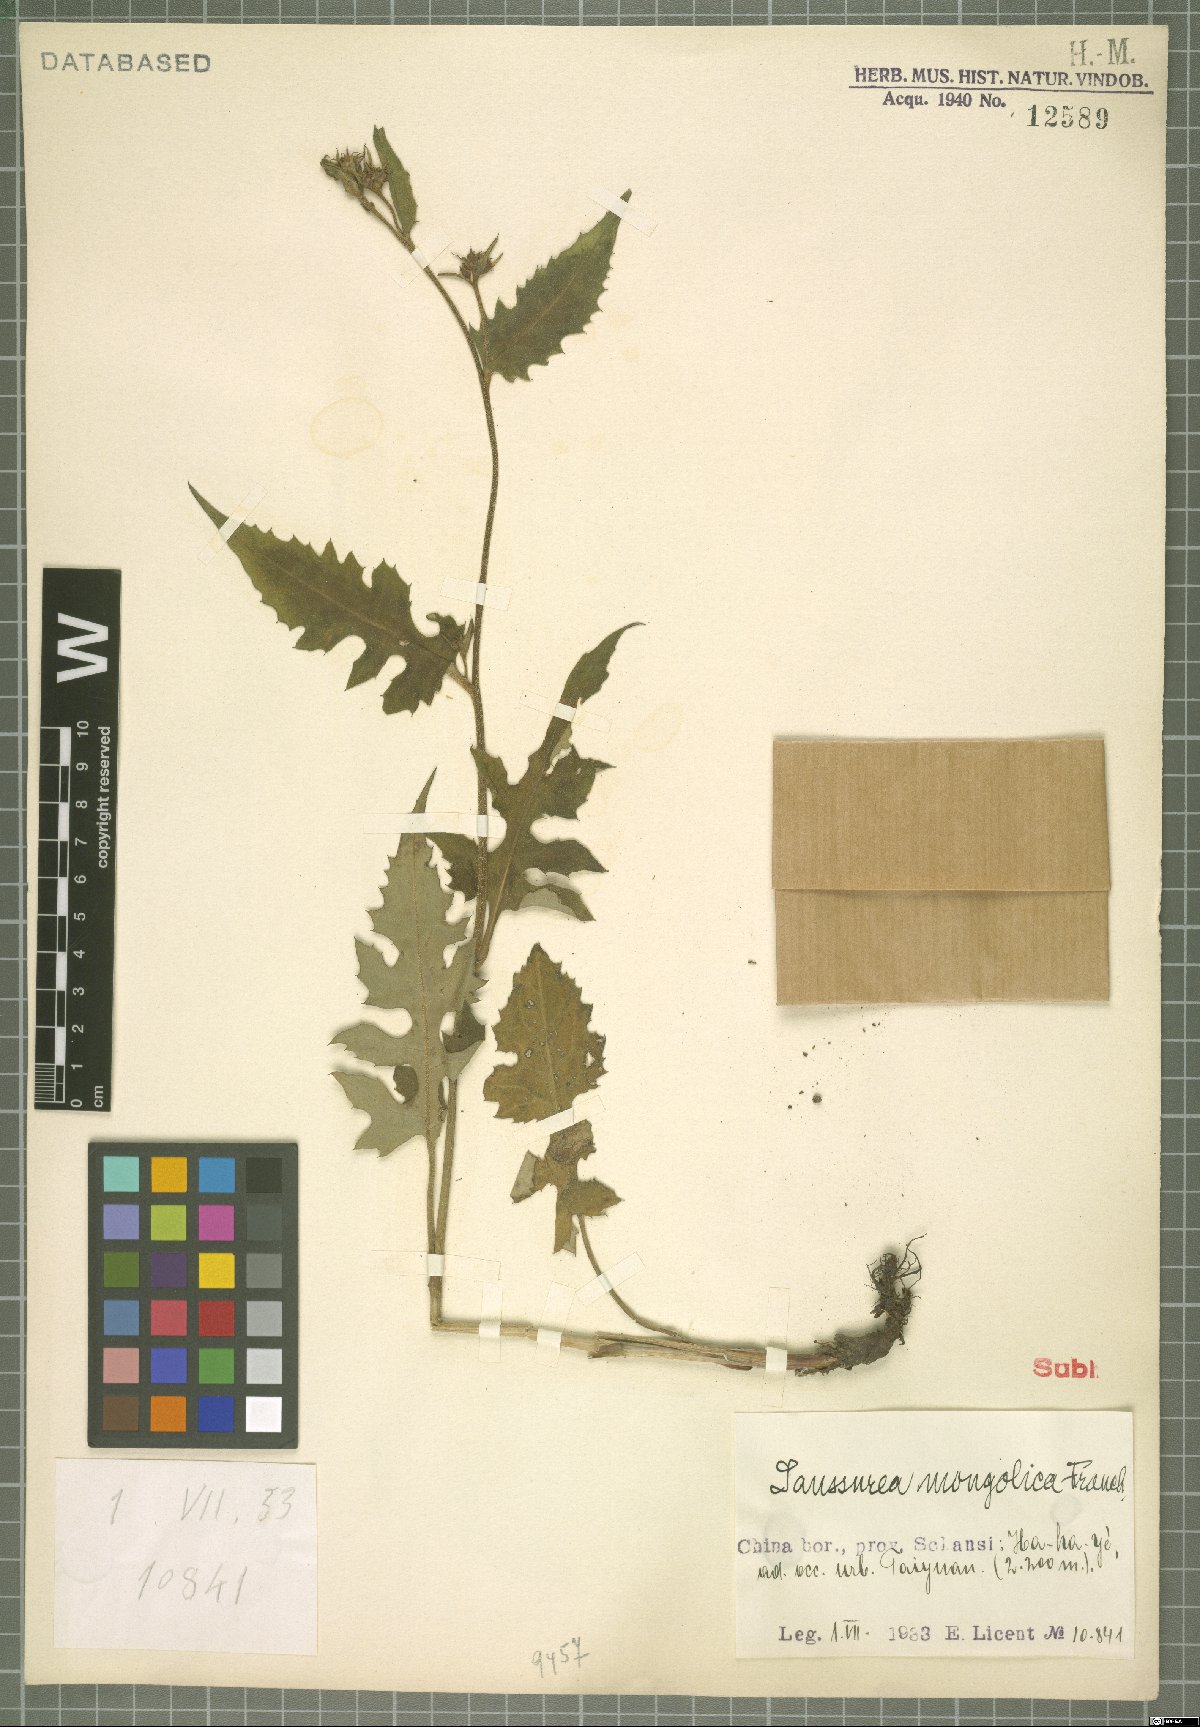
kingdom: Plantae
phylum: Tracheophyta
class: Magnoliopsida
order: Asterales
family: Asteraceae
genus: Saussurea
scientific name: Saussurea mongolica
